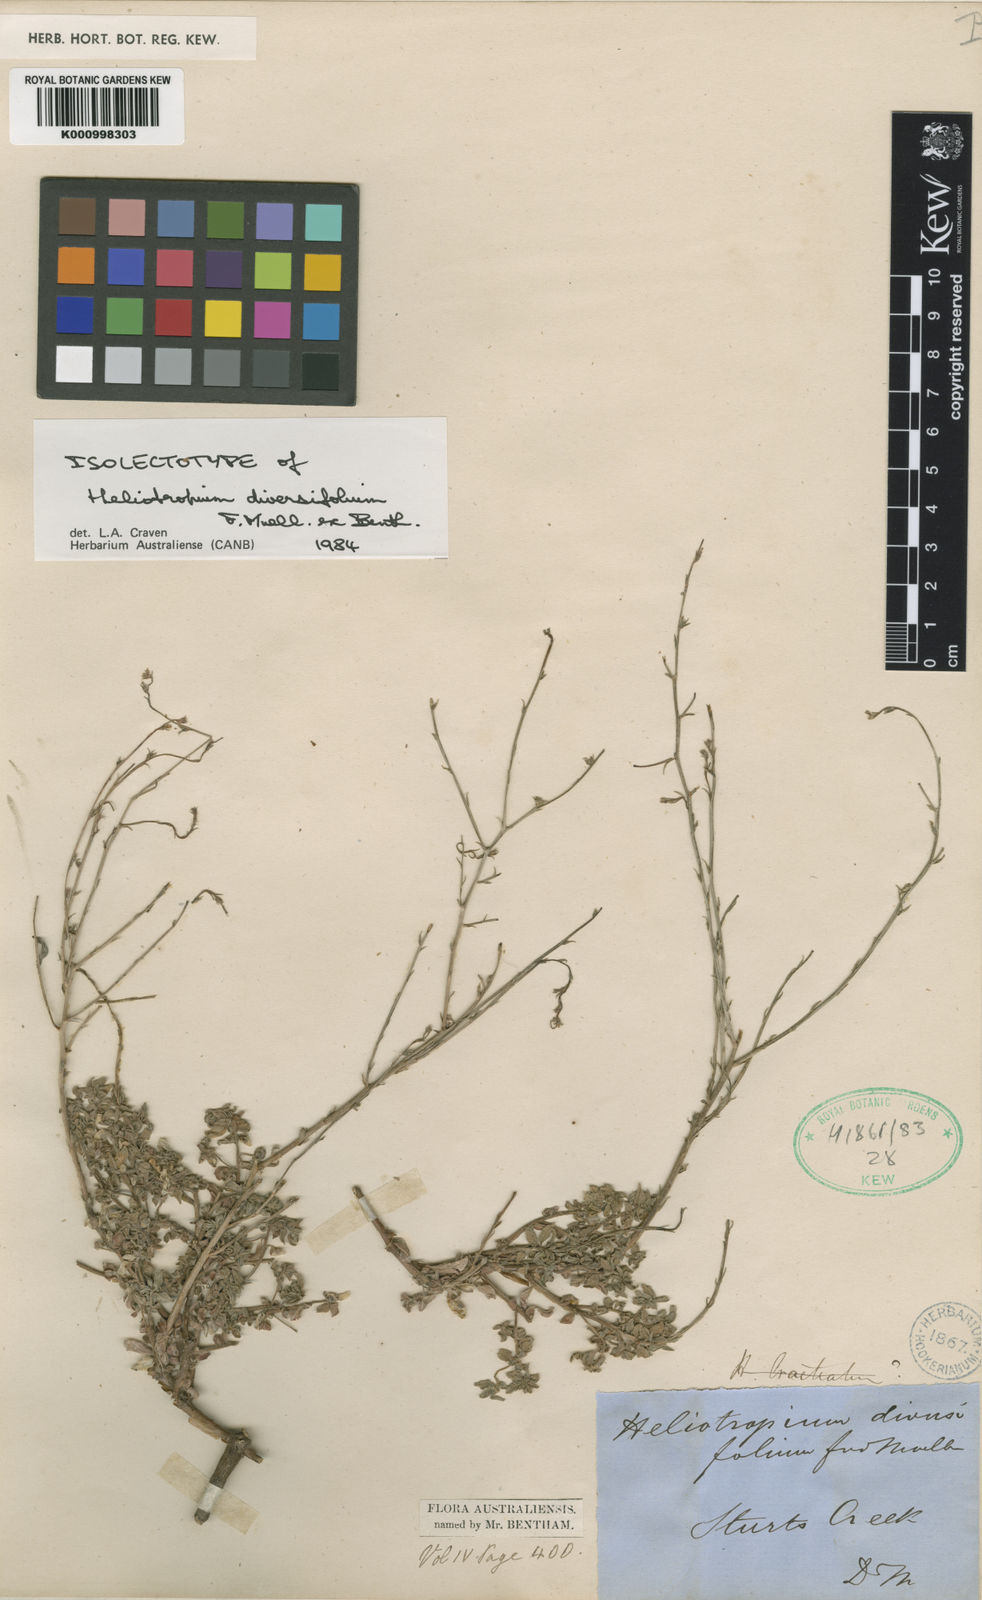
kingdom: Plantae
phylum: Tracheophyta
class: Magnoliopsida
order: Boraginales
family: Heliotropiaceae
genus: Euploca
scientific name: Euploca diversifolia
